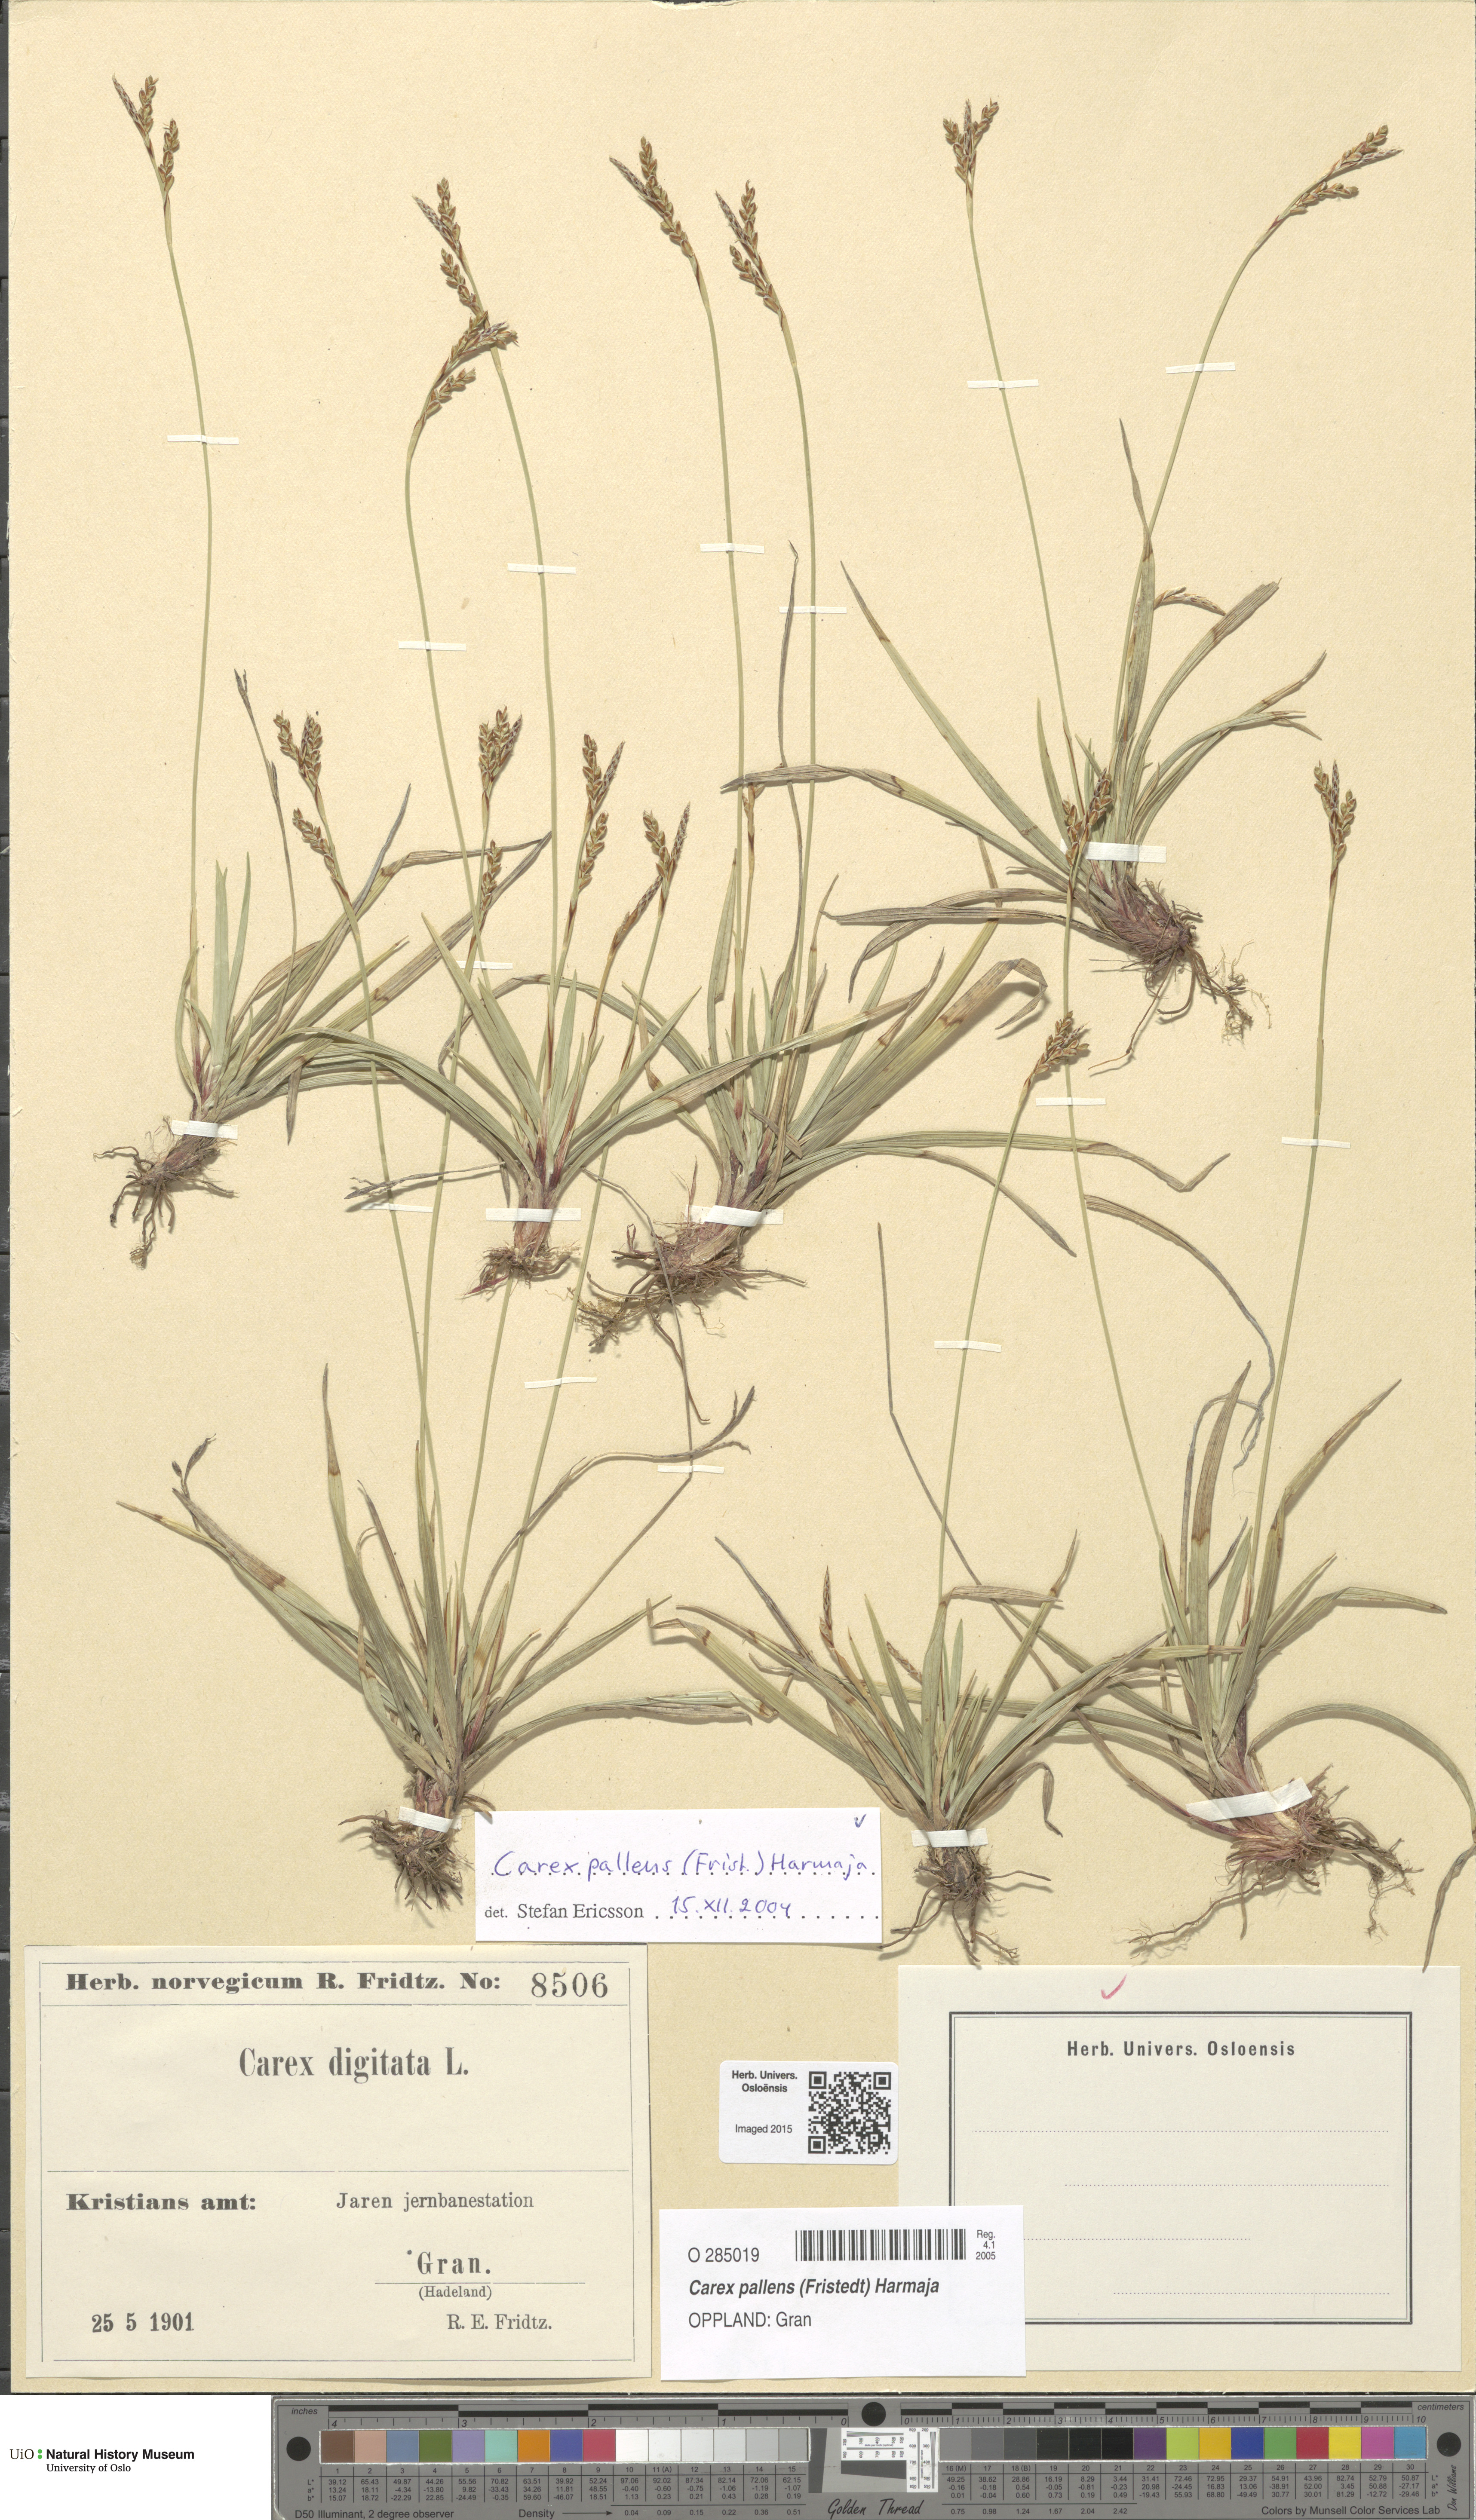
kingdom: Plantae
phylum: Tracheophyta
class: Liliopsida
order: Poales
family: Cyperaceae
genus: Carex
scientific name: Carex pallidula
